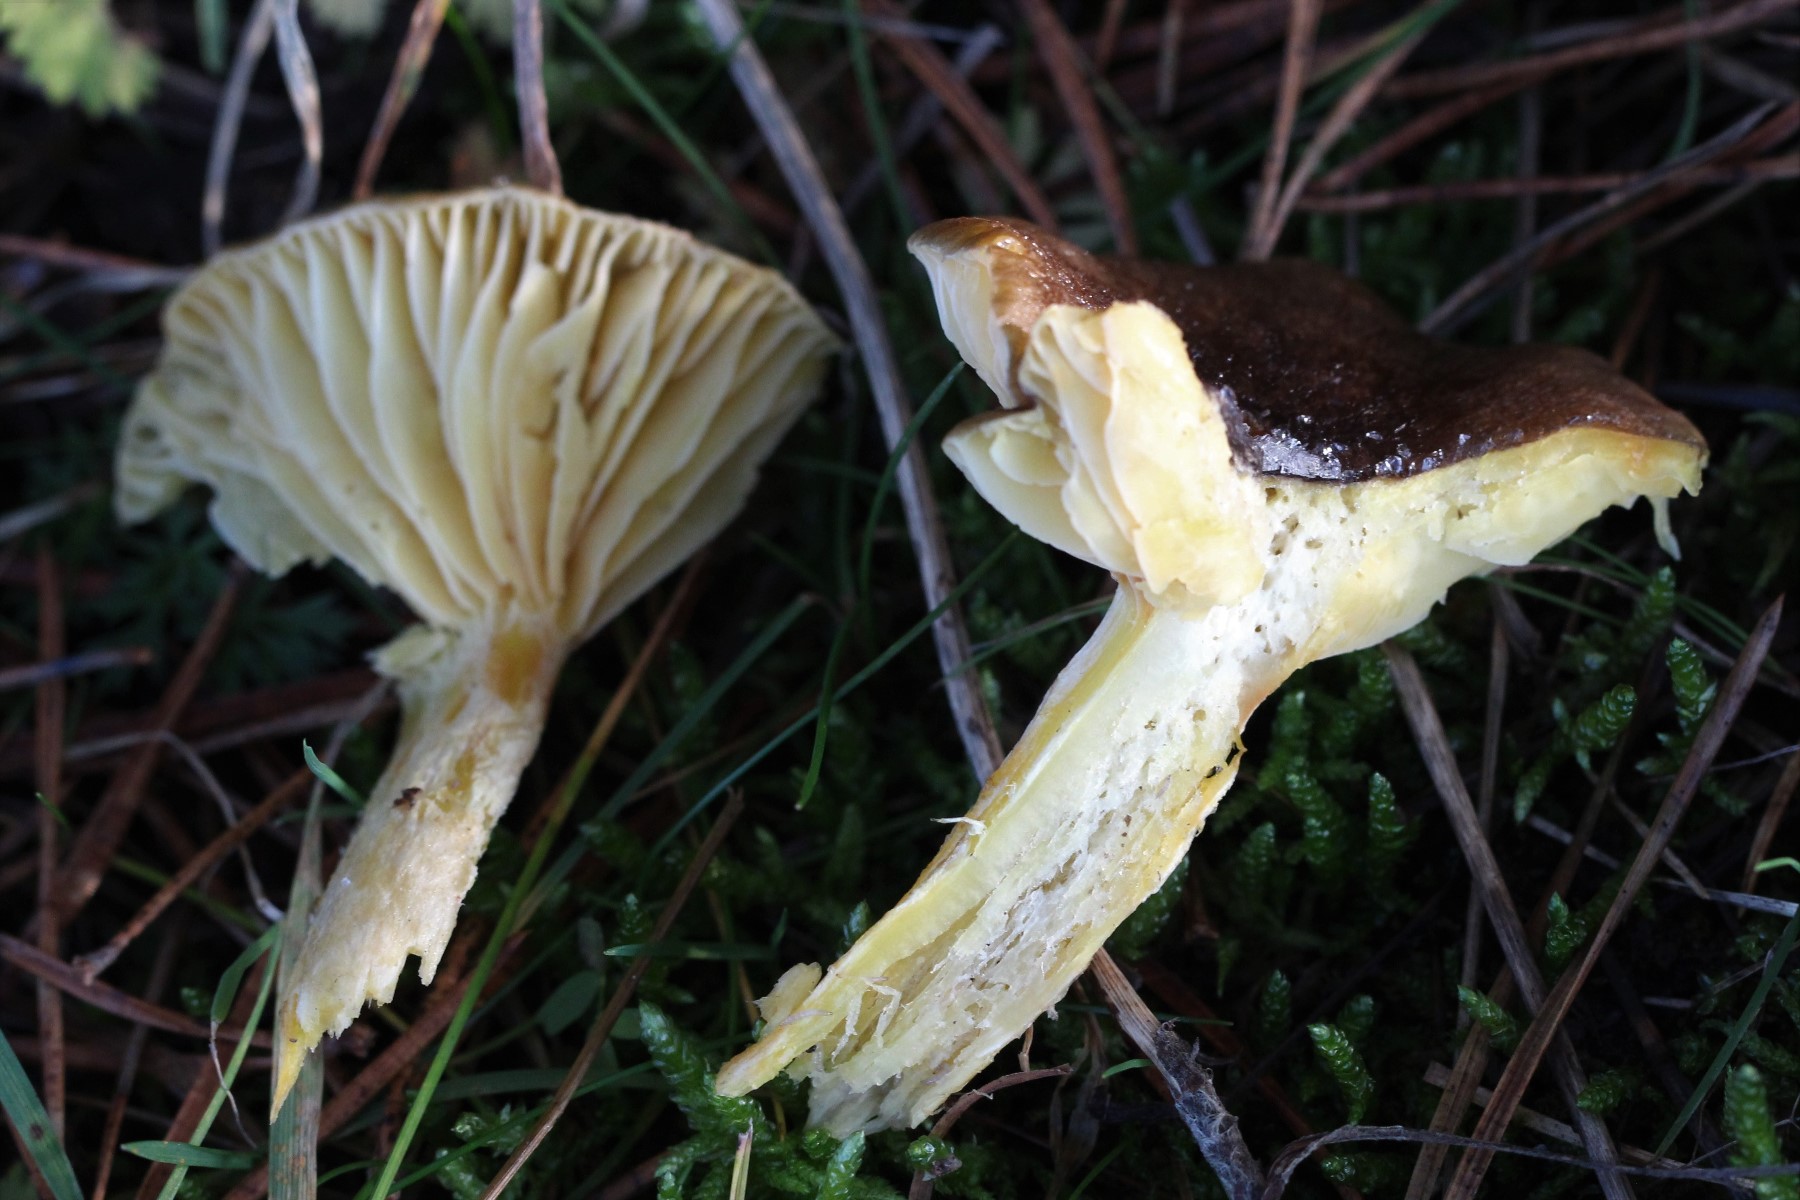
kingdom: Fungi
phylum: Basidiomycota
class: Agaricomycetes
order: Agaricales
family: Hygrophoraceae
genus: Hygrophorus
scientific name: Hygrophorus hypothejus
